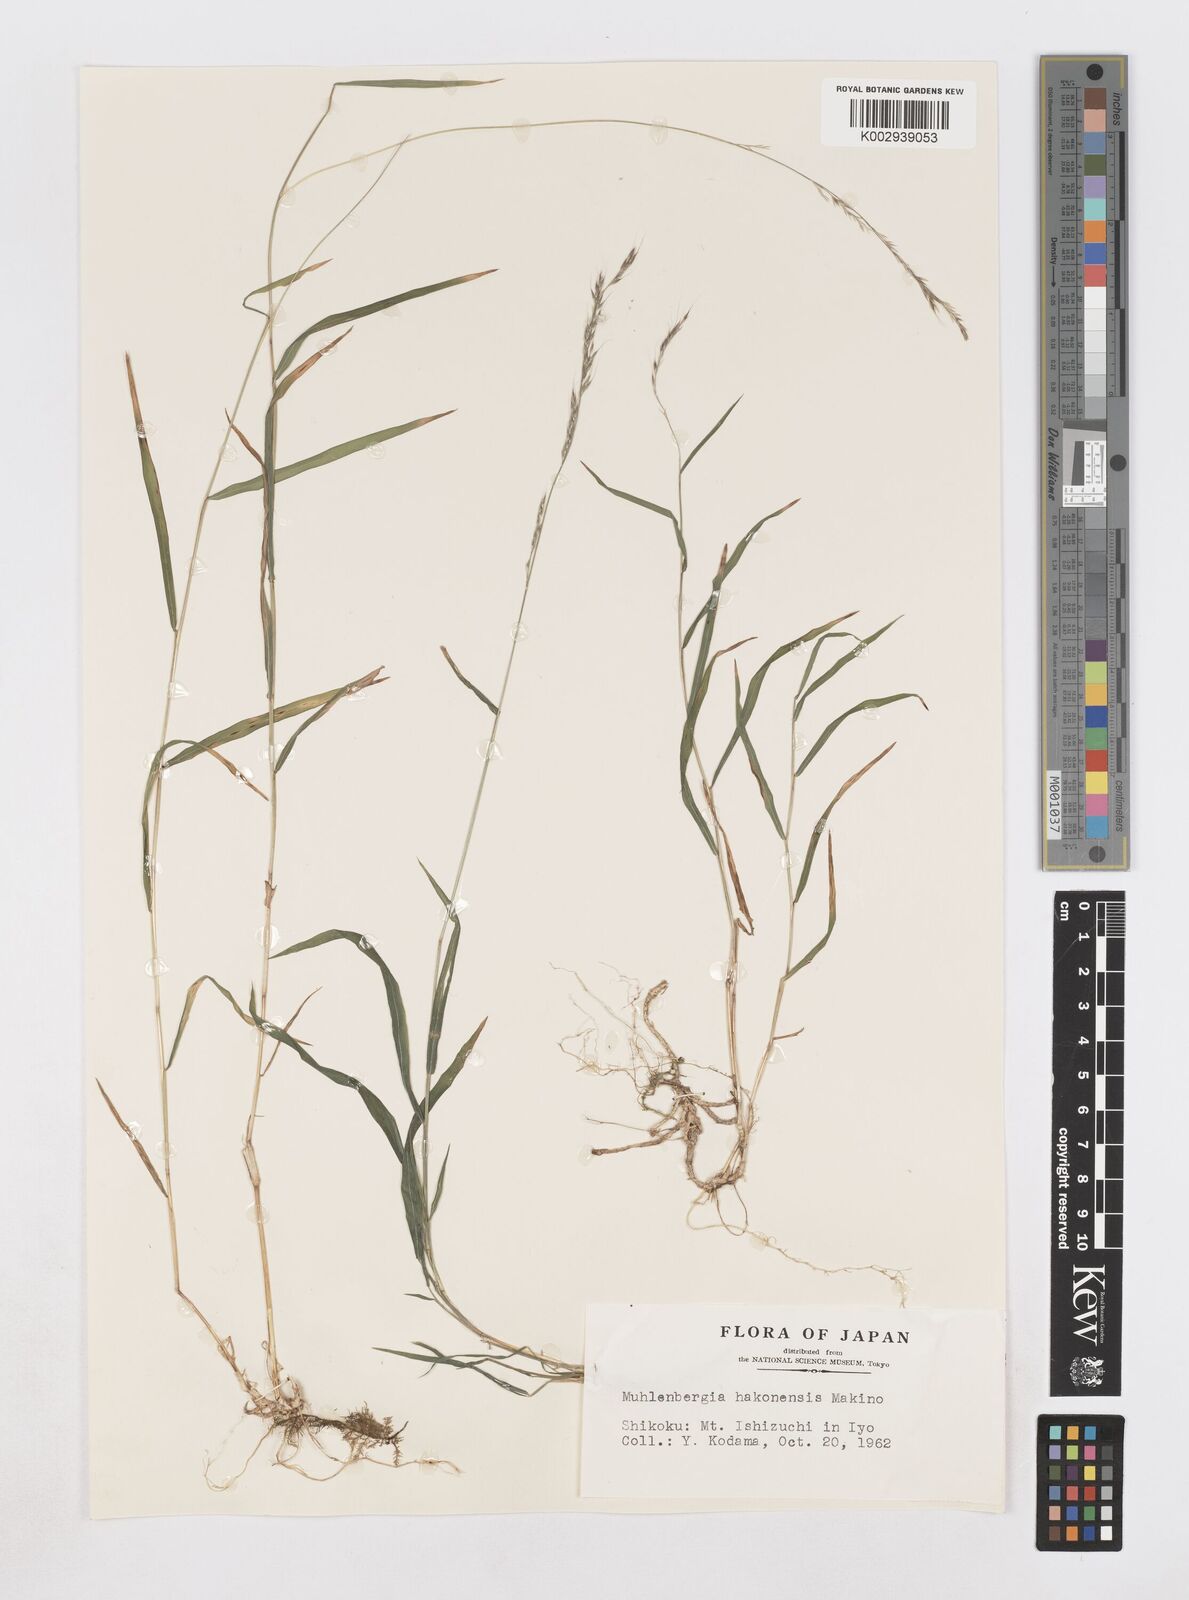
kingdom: Plantae
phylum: Tracheophyta
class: Liliopsida
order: Poales
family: Poaceae
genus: Muhlenbergia
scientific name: Muhlenbergia hakonensis
